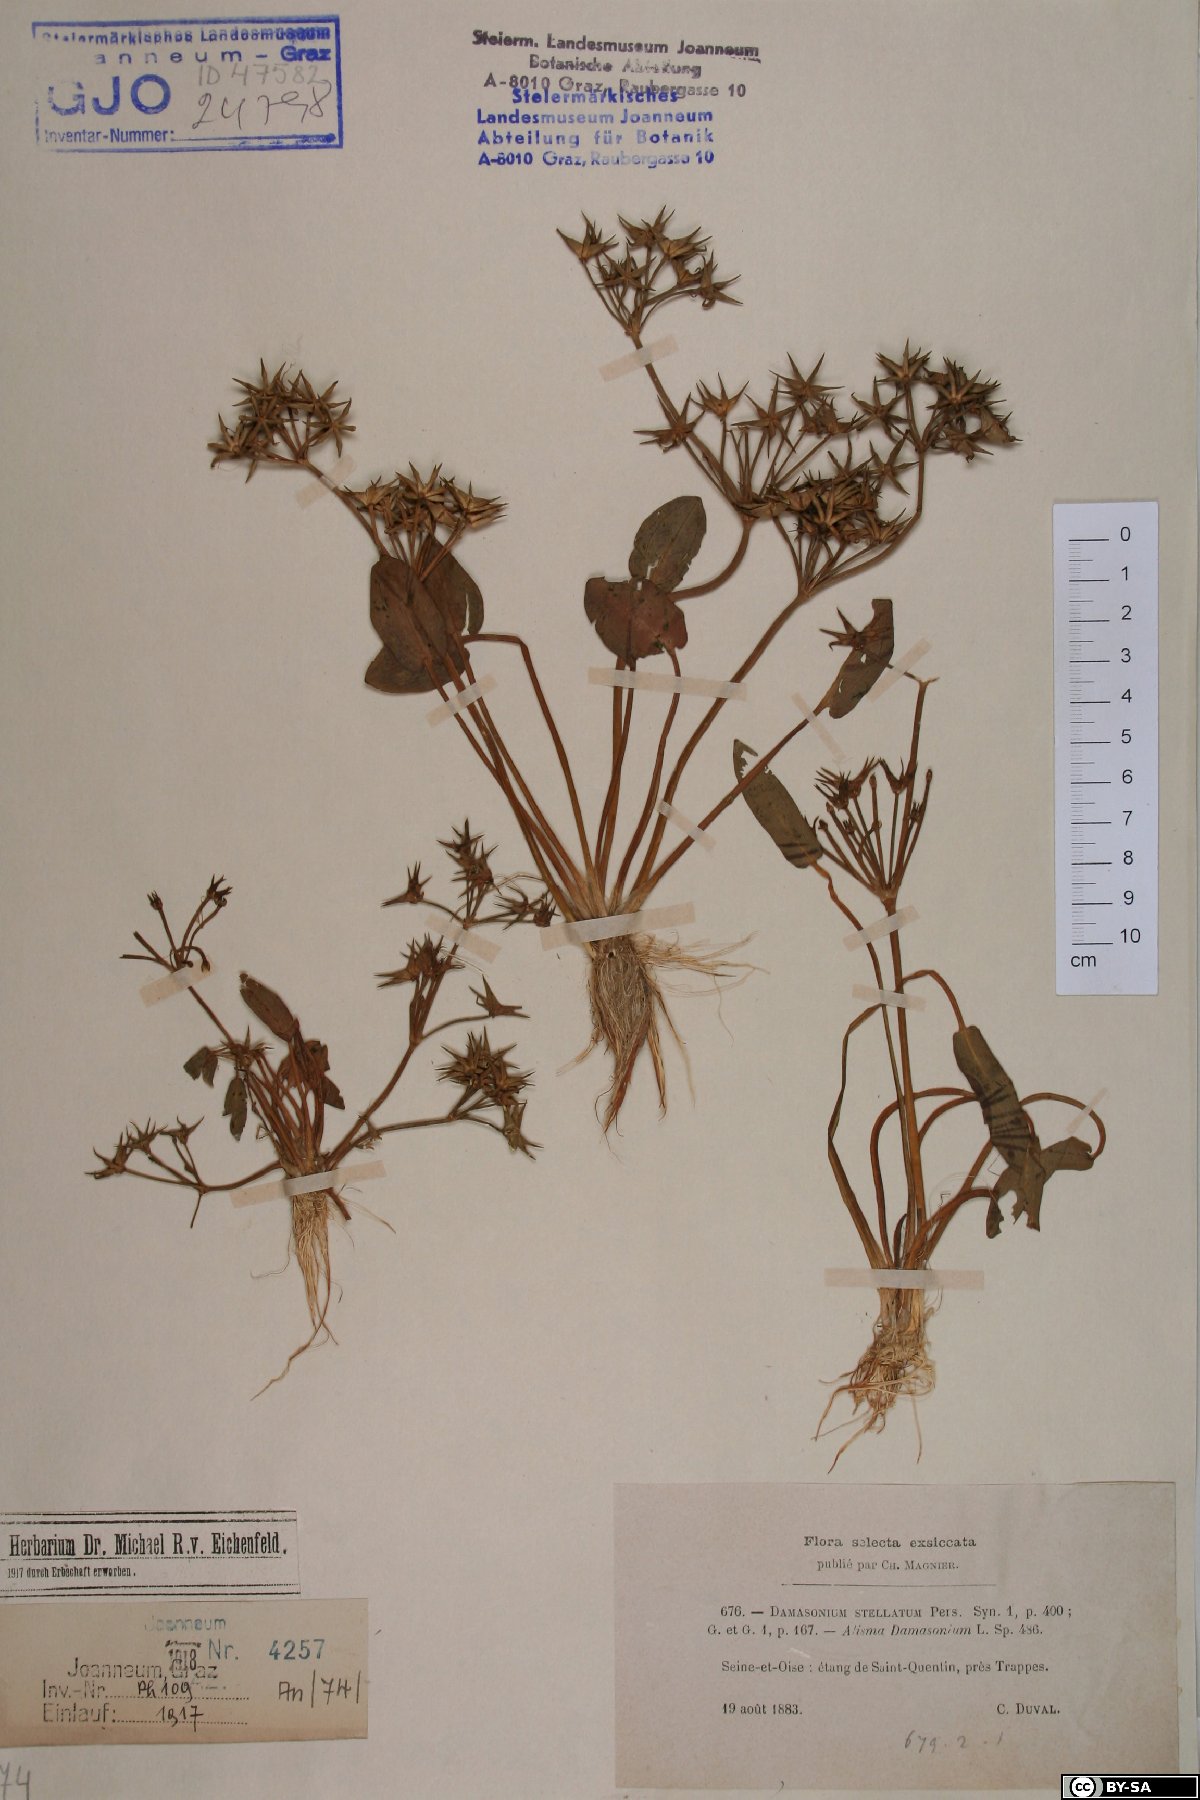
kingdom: Plantae
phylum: Tracheophyta
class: Liliopsida
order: Alismatales
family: Alismataceae
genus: Damasonium
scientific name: Damasonium alisma
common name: Starfruit
